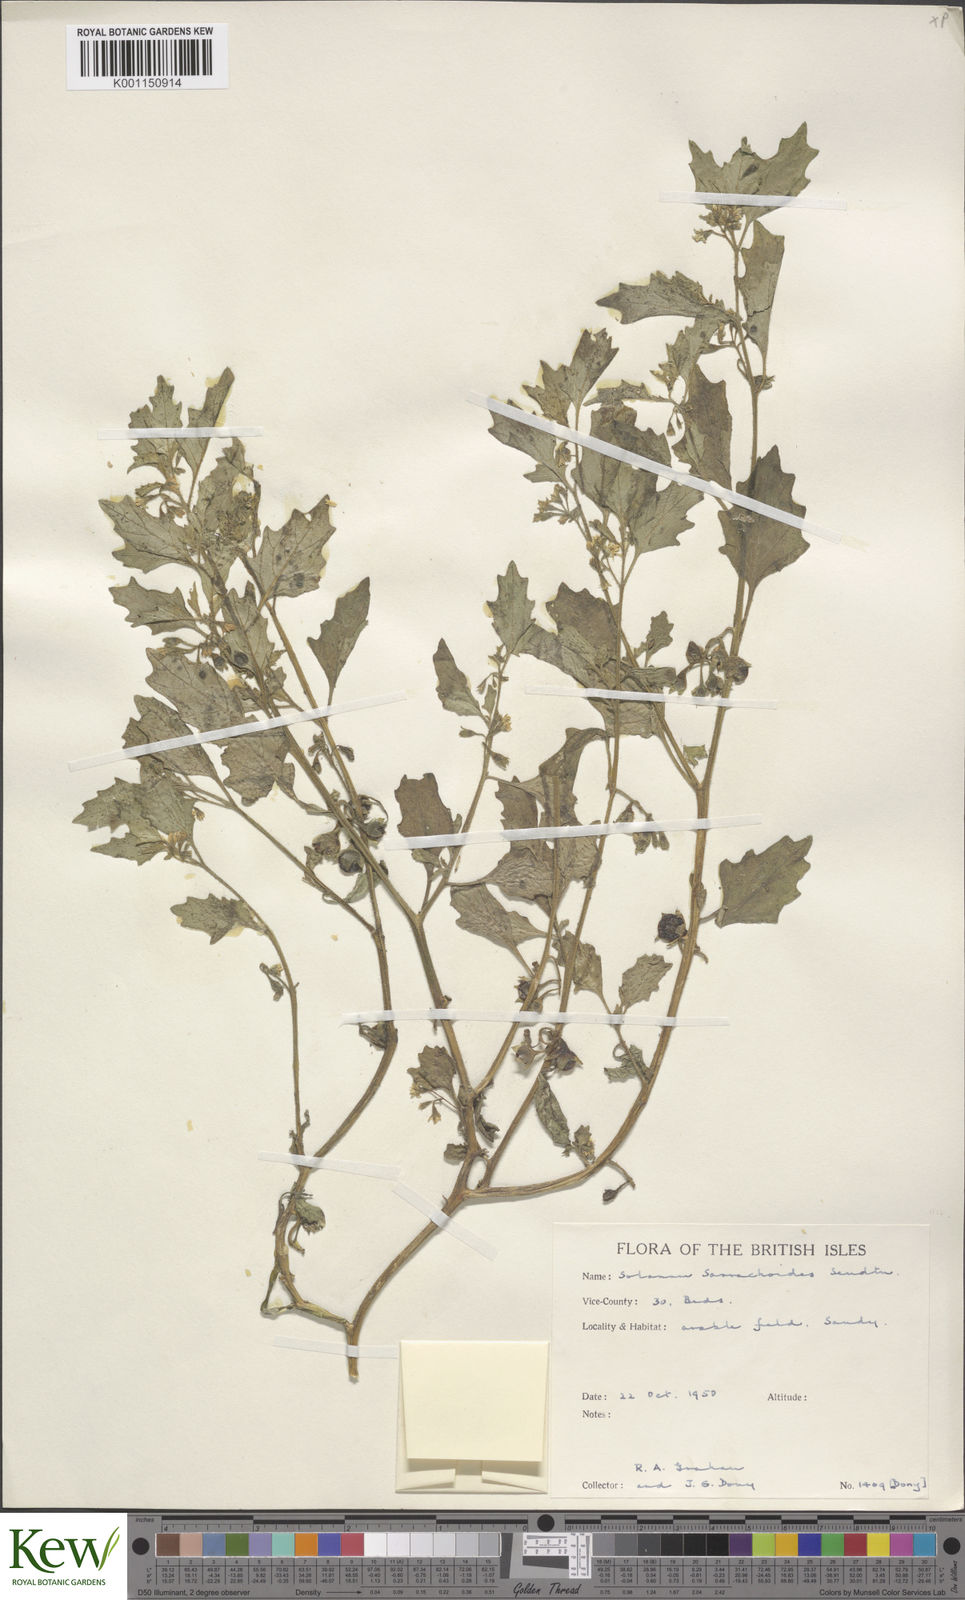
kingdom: Plantae
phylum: Tracheophyta
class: Magnoliopsida
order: Solanales
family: Solanaceae
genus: Solanum
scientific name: Solanum nitidibaccatum
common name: Hairy nightshade
